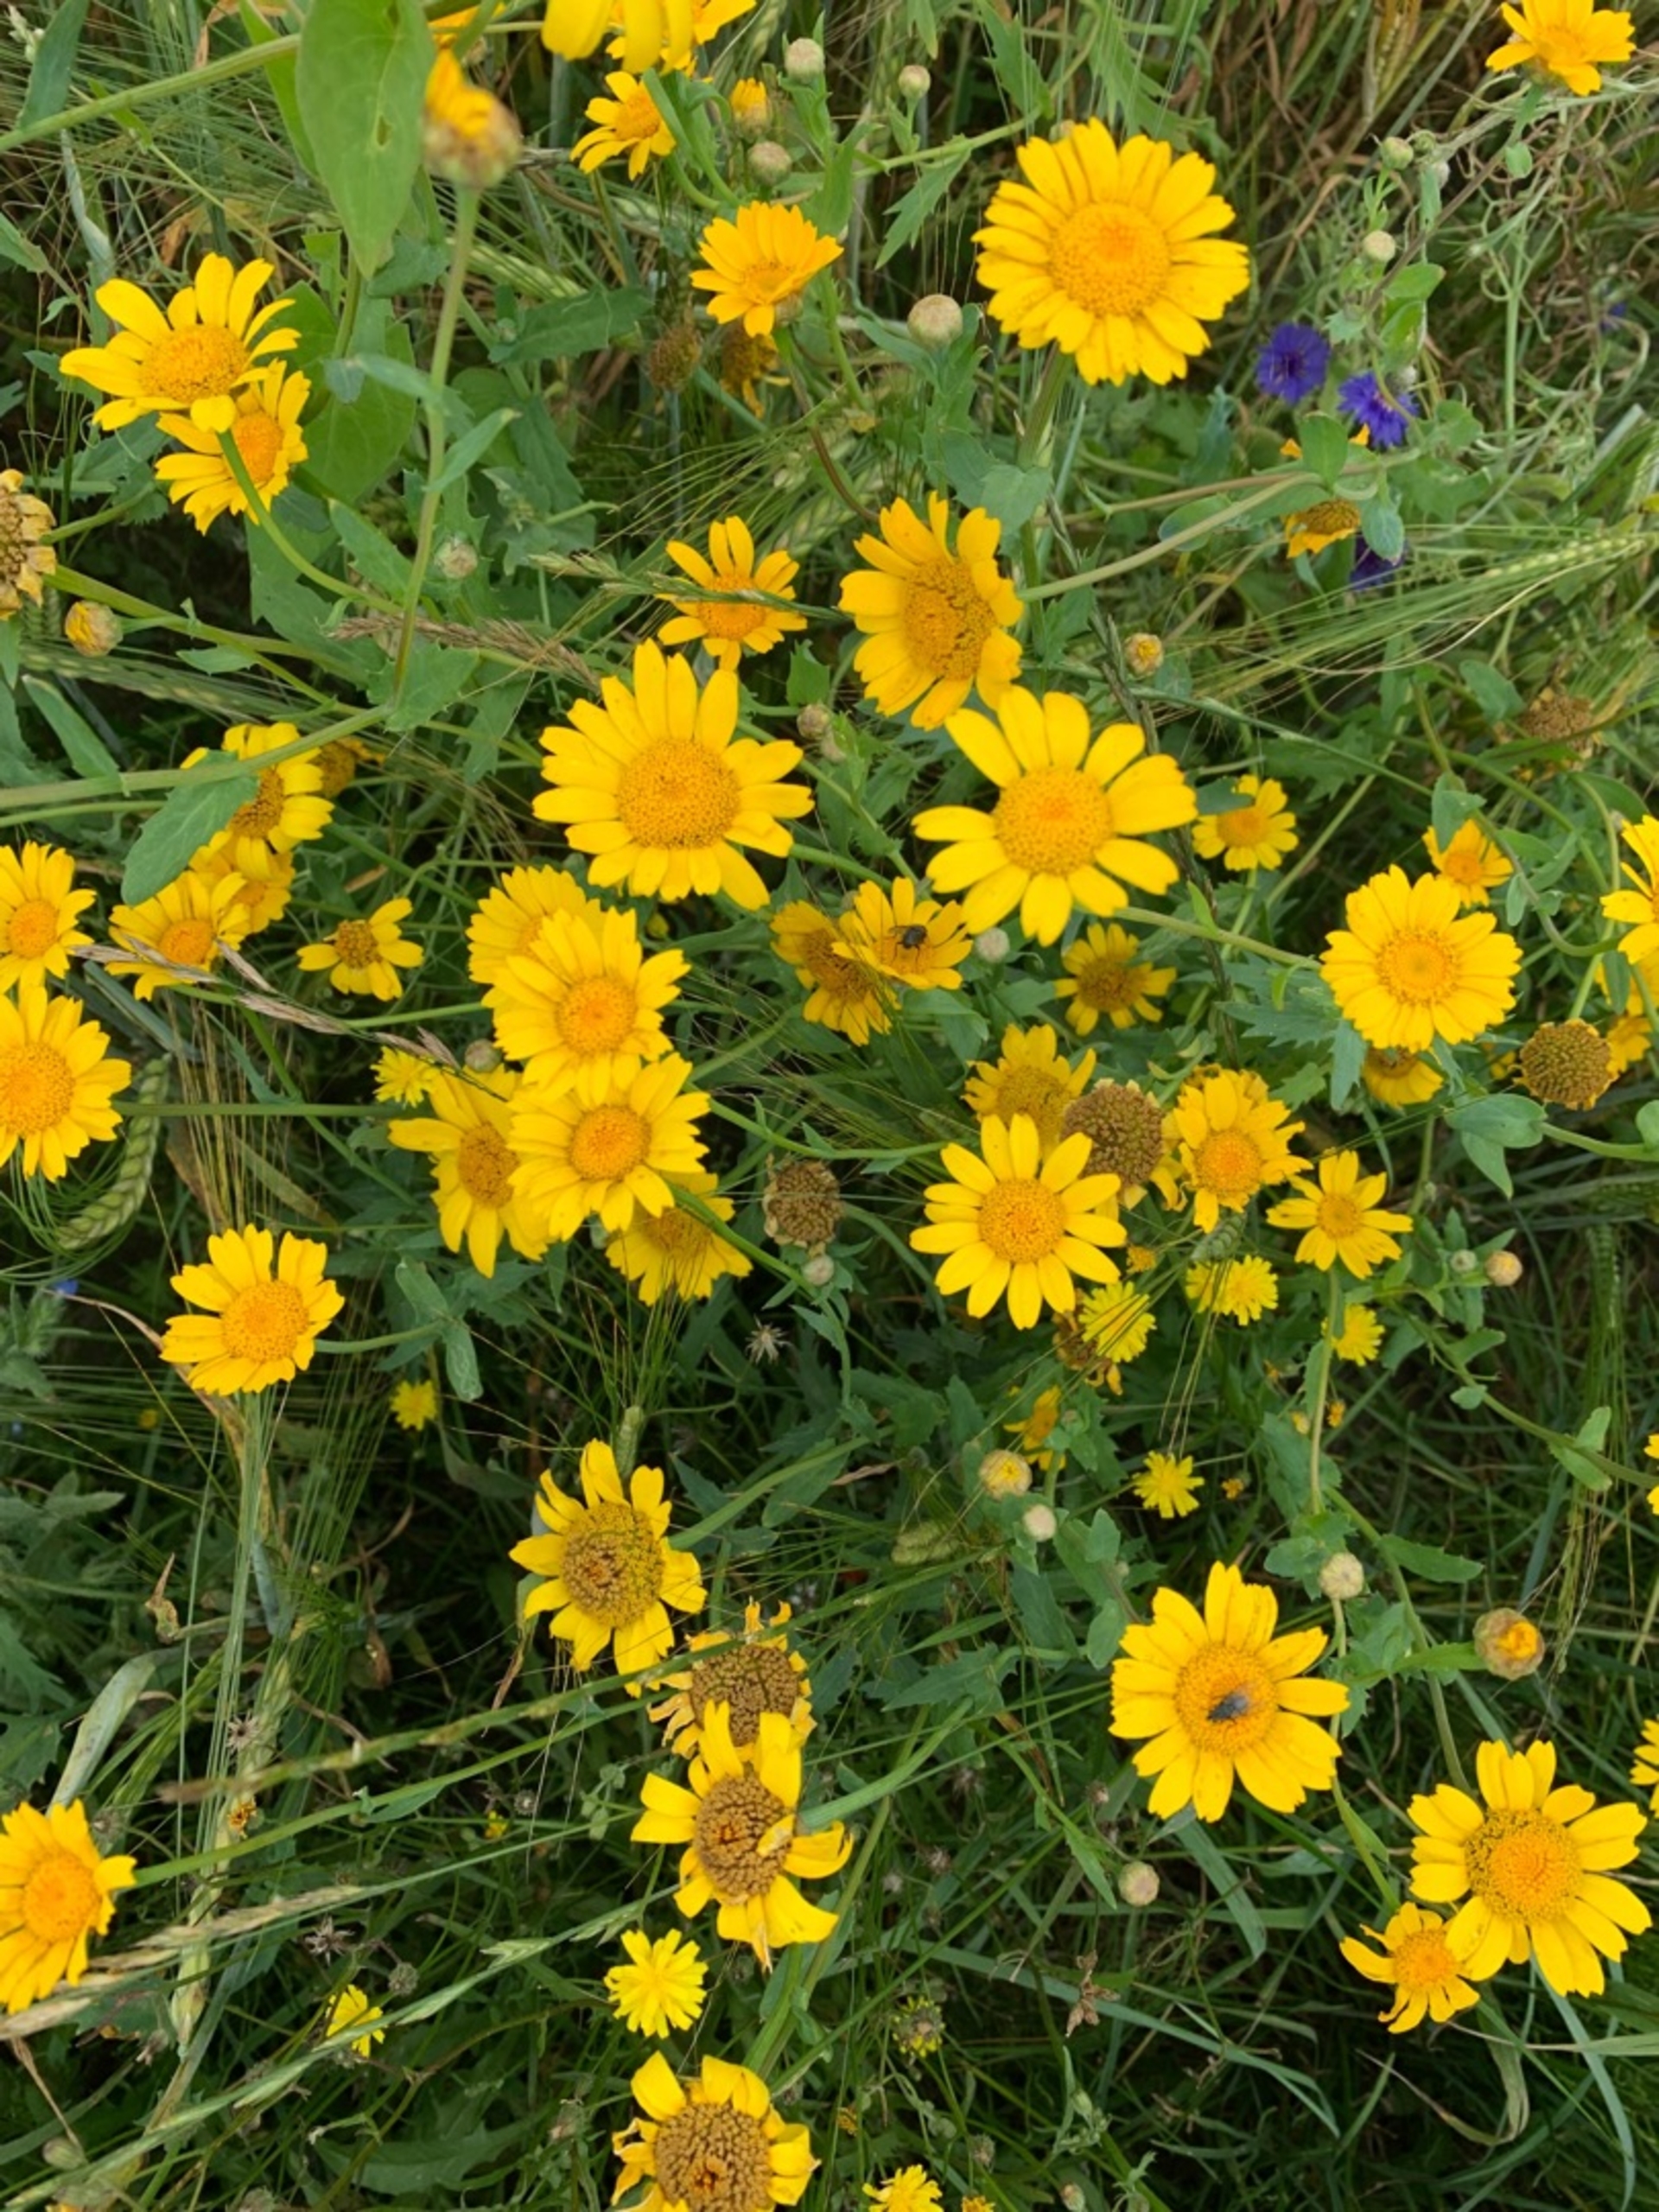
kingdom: Plantae
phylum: Tracheophyta
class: Magnoliopsida
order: Asterales
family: Asteraceae
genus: Glebionis
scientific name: Glebionis segetum
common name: Gul okseøje
